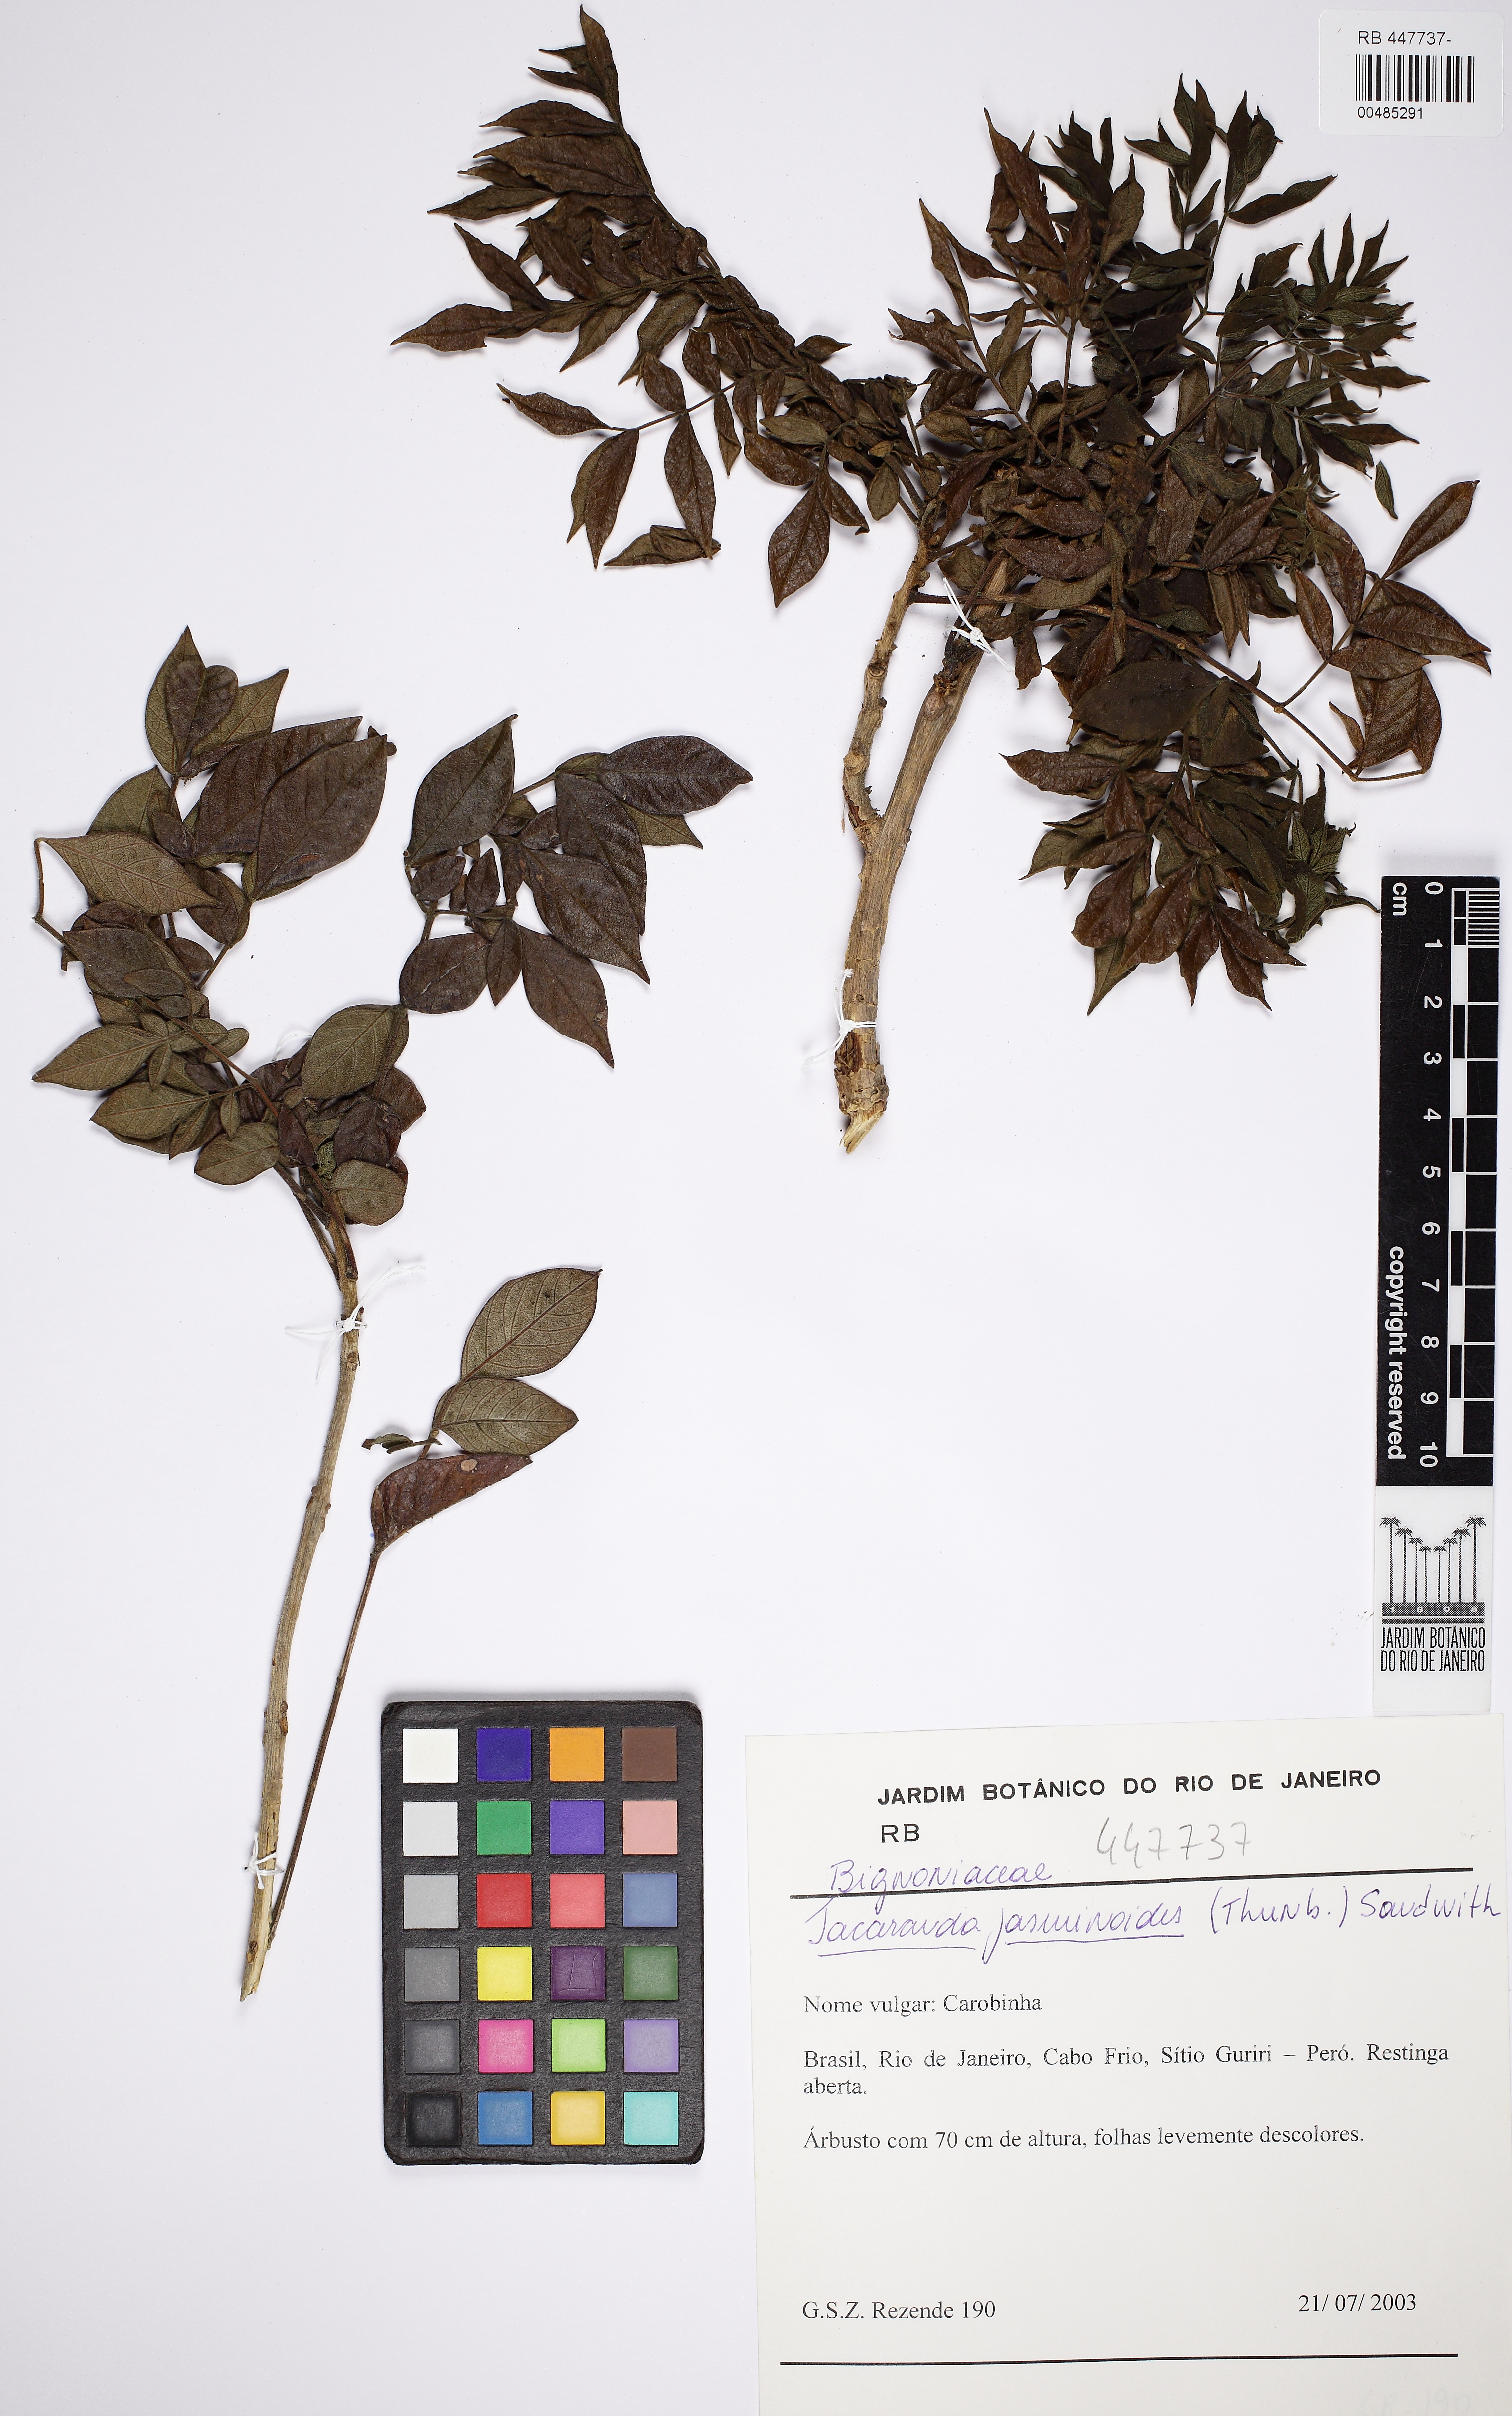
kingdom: Plantae
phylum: Tracheophyta
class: Magnoliopsida
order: Lamiales
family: Bignoniaceae
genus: Jacaranda
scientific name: Jacaranda jasminoides
